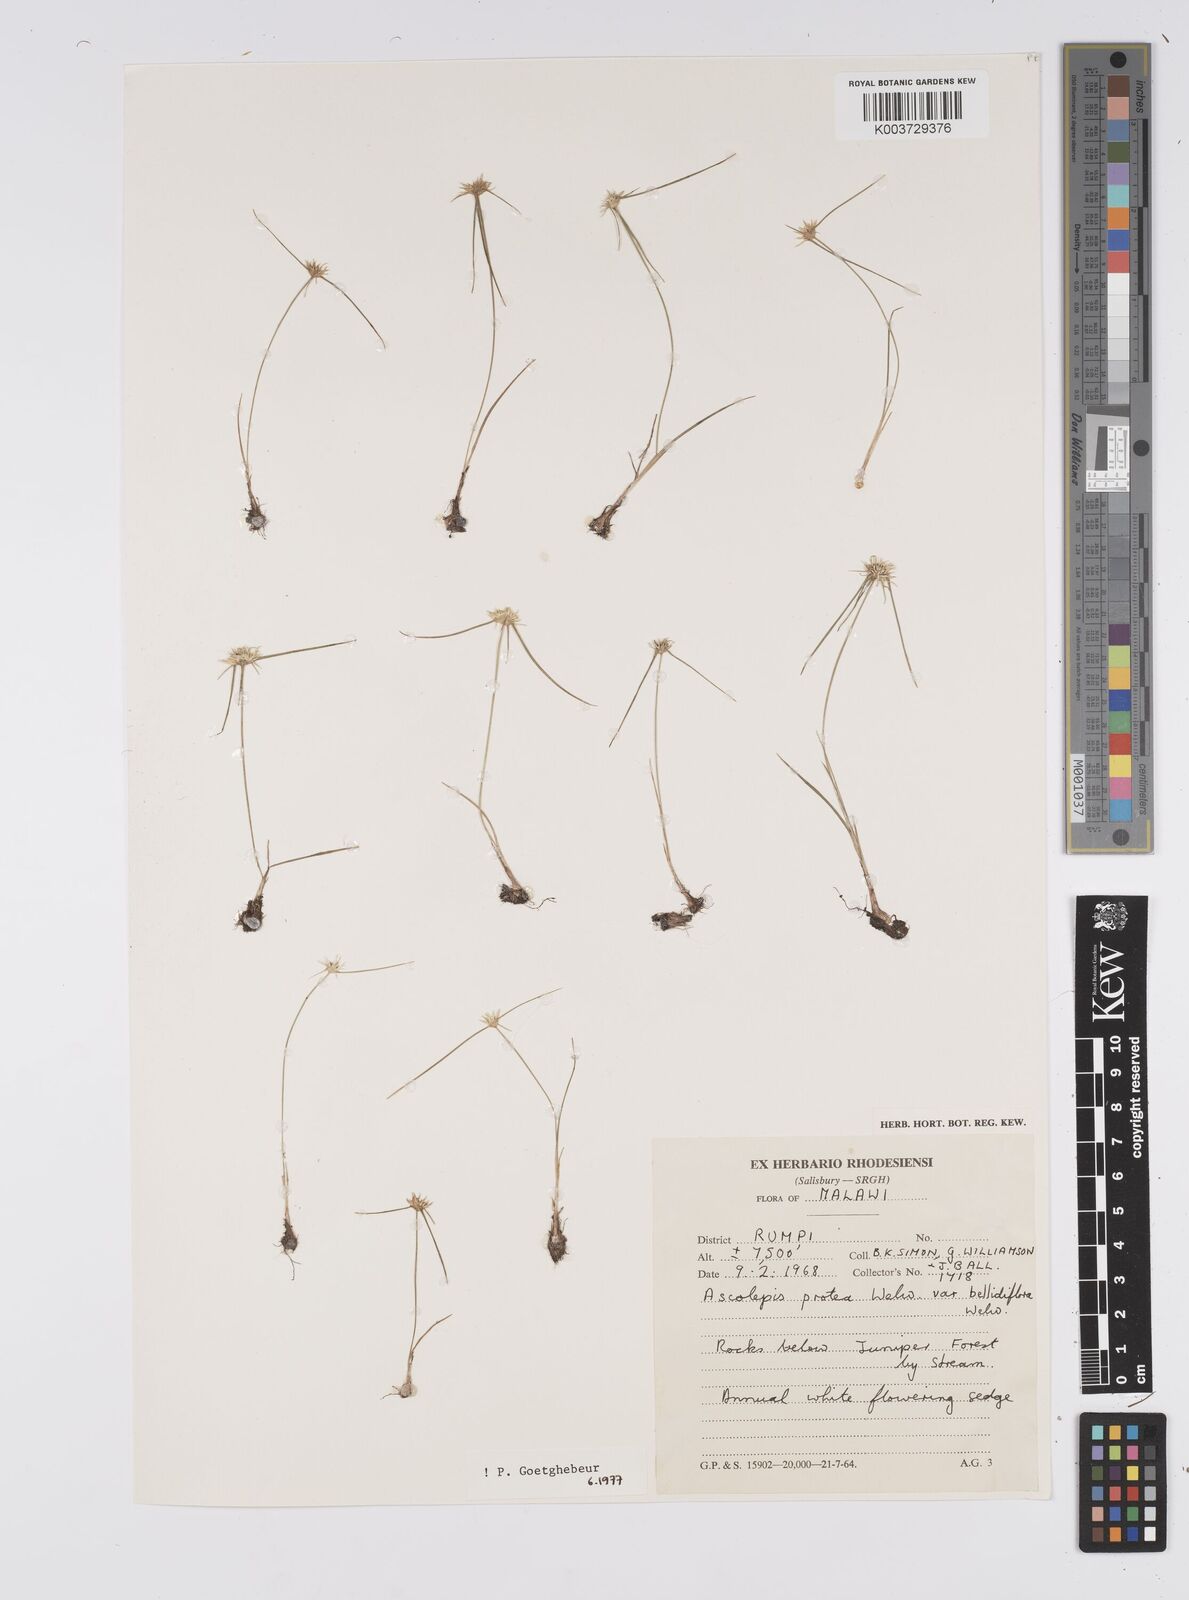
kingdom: Plantae
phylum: Tracheophyta
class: Liliopsida
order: Poales
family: Cyperaceae
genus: Cyperus
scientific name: Cyperus proteus
